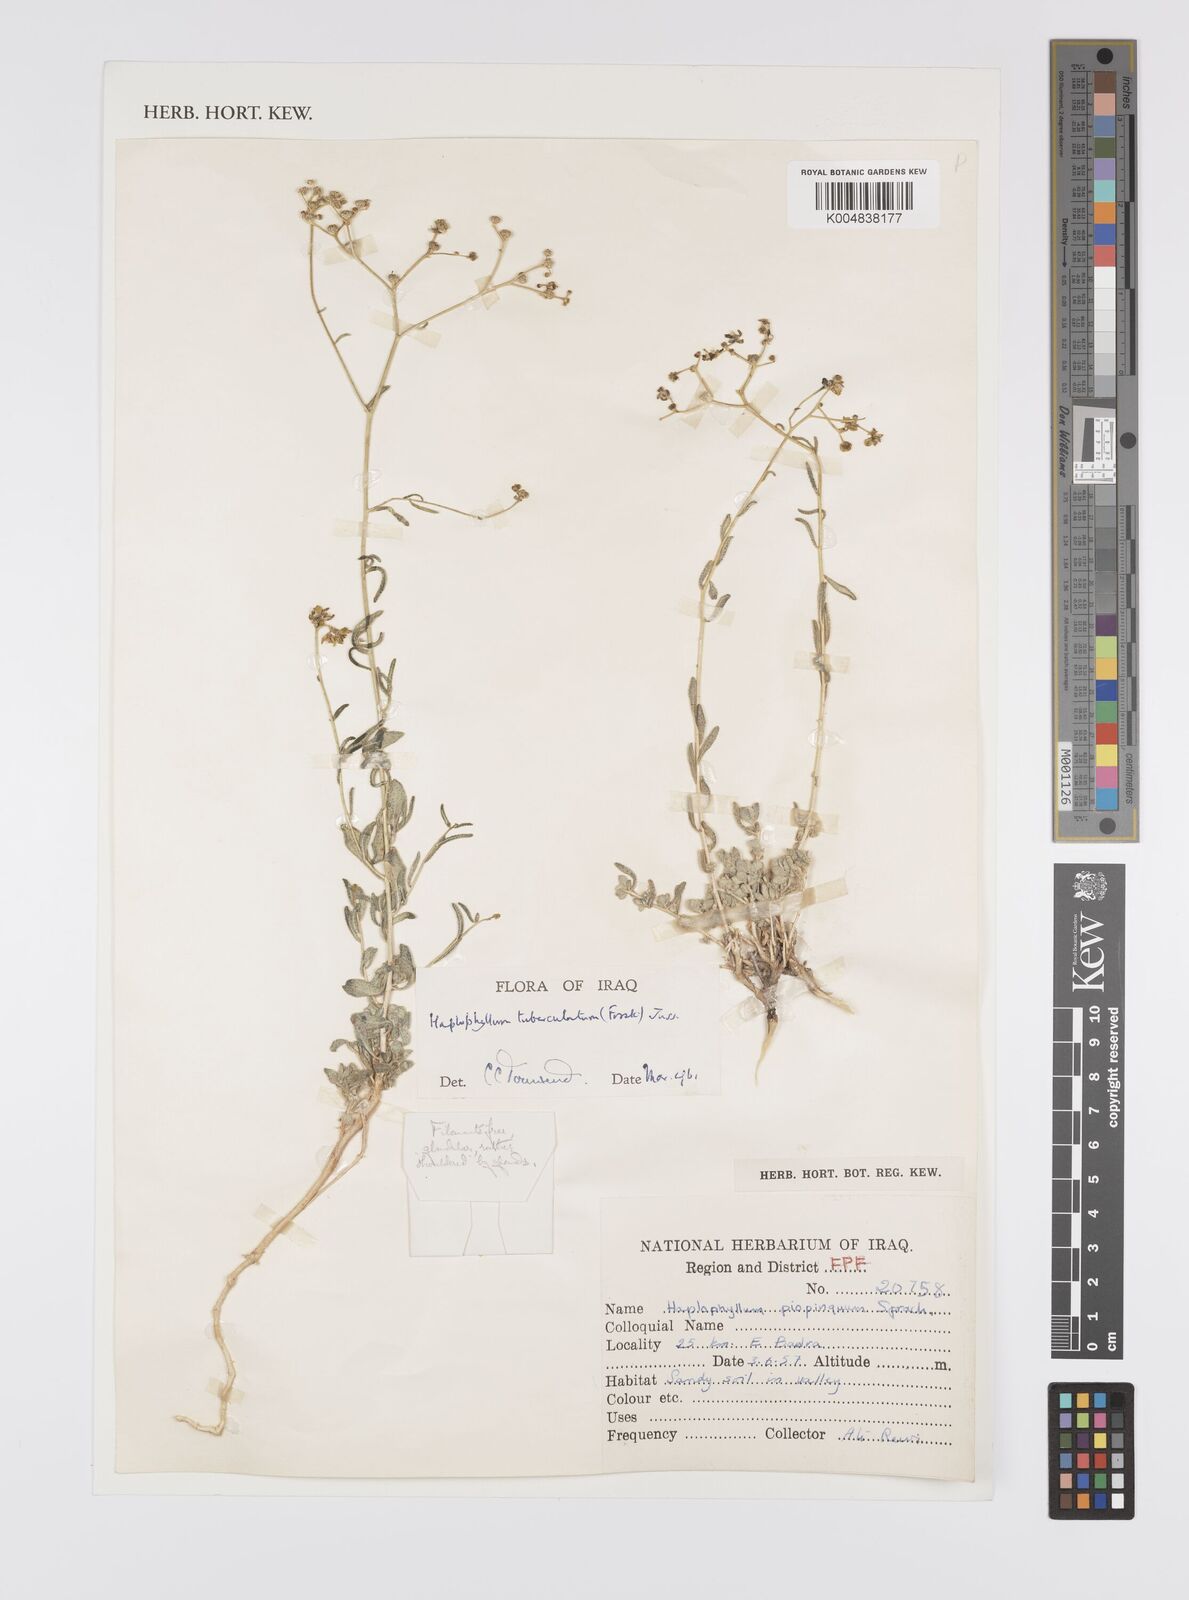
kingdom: Plantae
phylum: Tracheophyta
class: Magnoliopsida
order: Sapindales
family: Rutaceae
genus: Haplophyllum
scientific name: Haplophyllum tuberculatum
